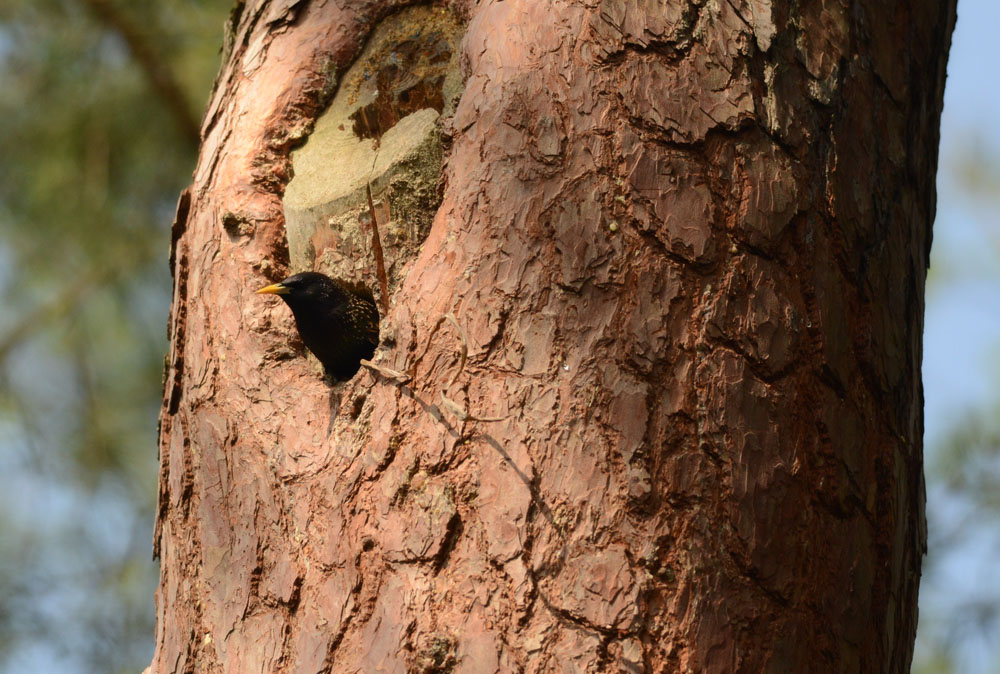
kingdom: Animalia
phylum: Chordata
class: Aves
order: Passeriformes
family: Sturnidae
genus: Sturnus
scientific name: Sturnus vulgaris
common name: Common starling
